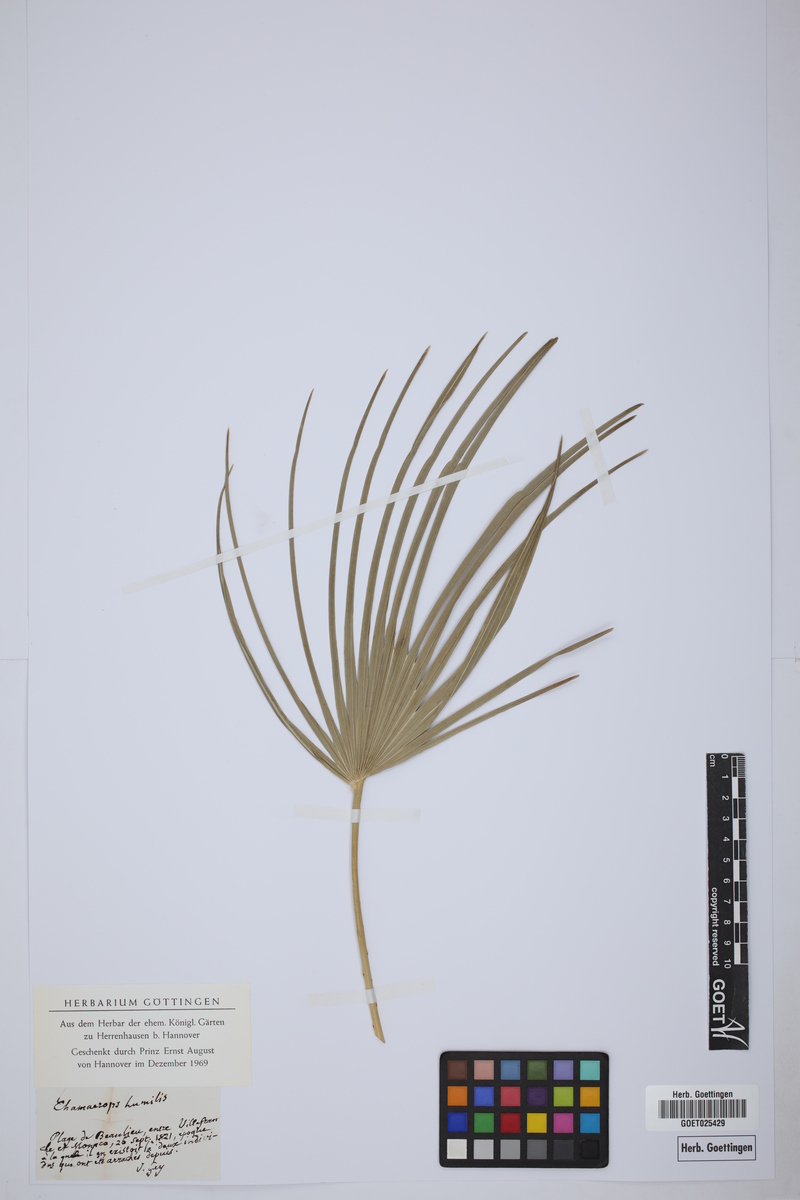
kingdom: Plantae
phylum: Tracheophyta
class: Liliopsida
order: Arecales
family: Arecaceae
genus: Chamaerops
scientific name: Chamaerops humilis
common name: Dwarf fan palm
